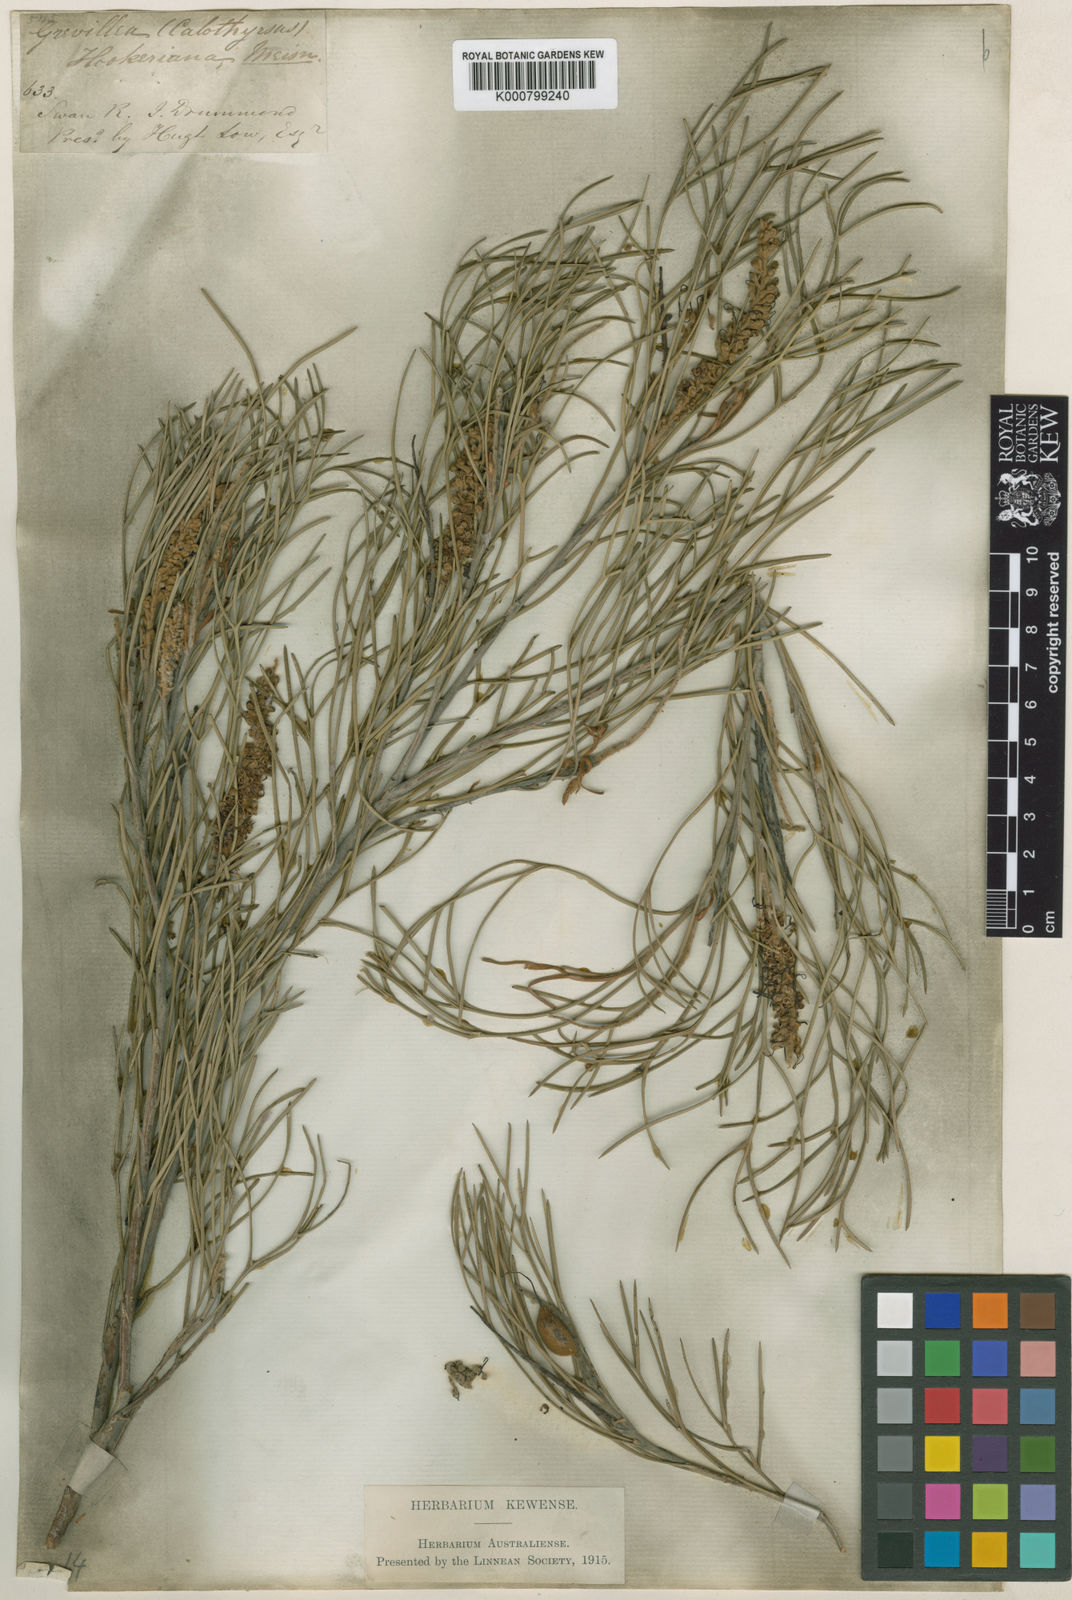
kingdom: Plantae
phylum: Tracheophyta
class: Magnoliopsida
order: Proteales
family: Proteaceae
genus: Grevillea
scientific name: Grevillea hookeriana
